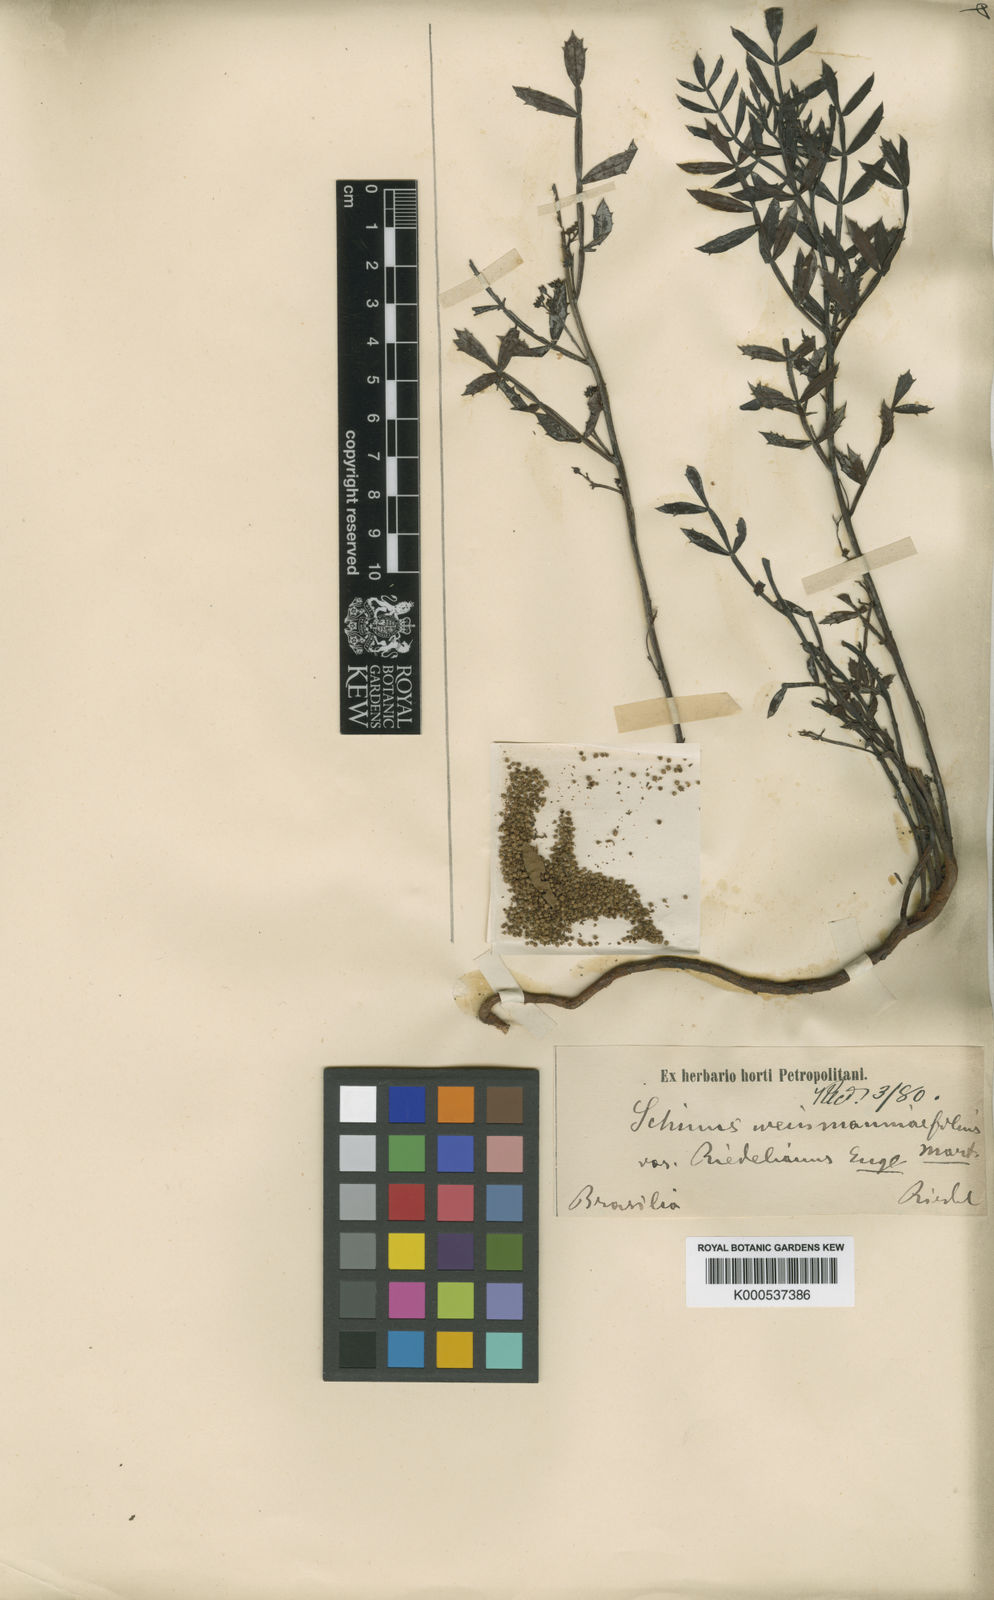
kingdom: Plantae
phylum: Tracheophyta
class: Magnoliopsida
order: Sapindales
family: Anacardiaceae
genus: Schinus
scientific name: Schinus
